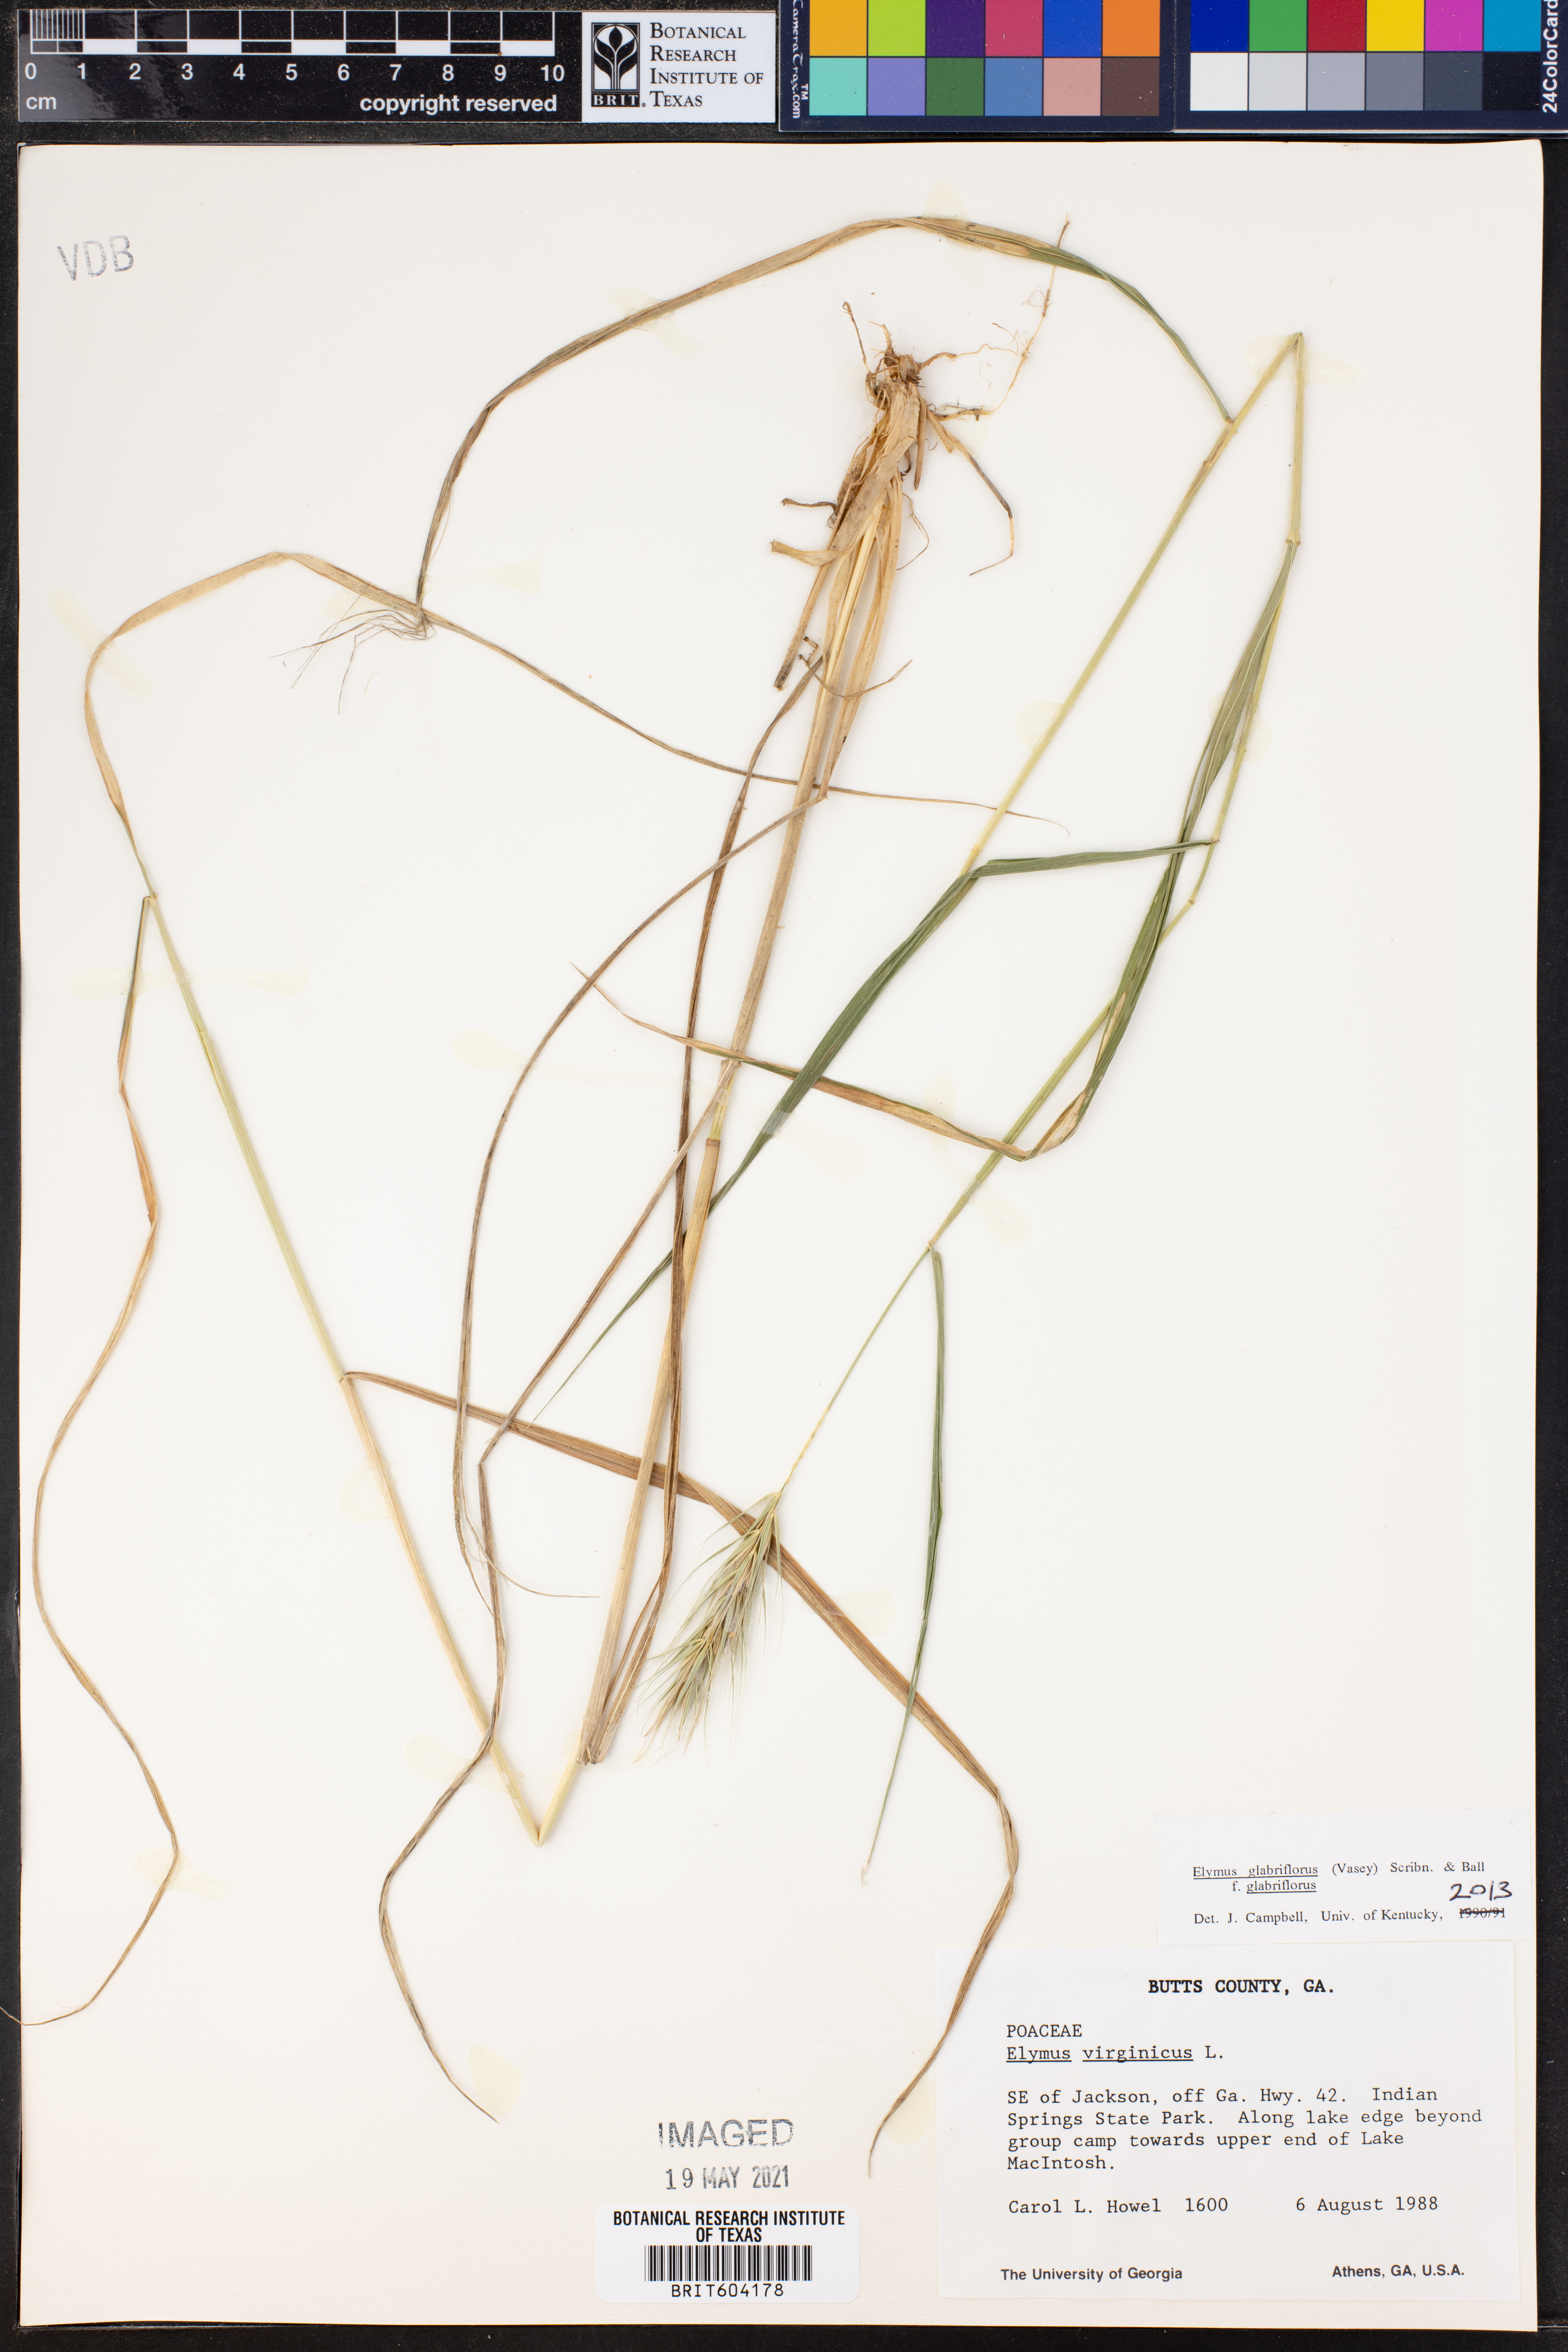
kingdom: Plantae
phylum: Tracheophyta
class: Liliopsida
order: Poales
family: Poaceae
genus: Elymus
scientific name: Elymus virginicus
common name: Common eastern wildrye
